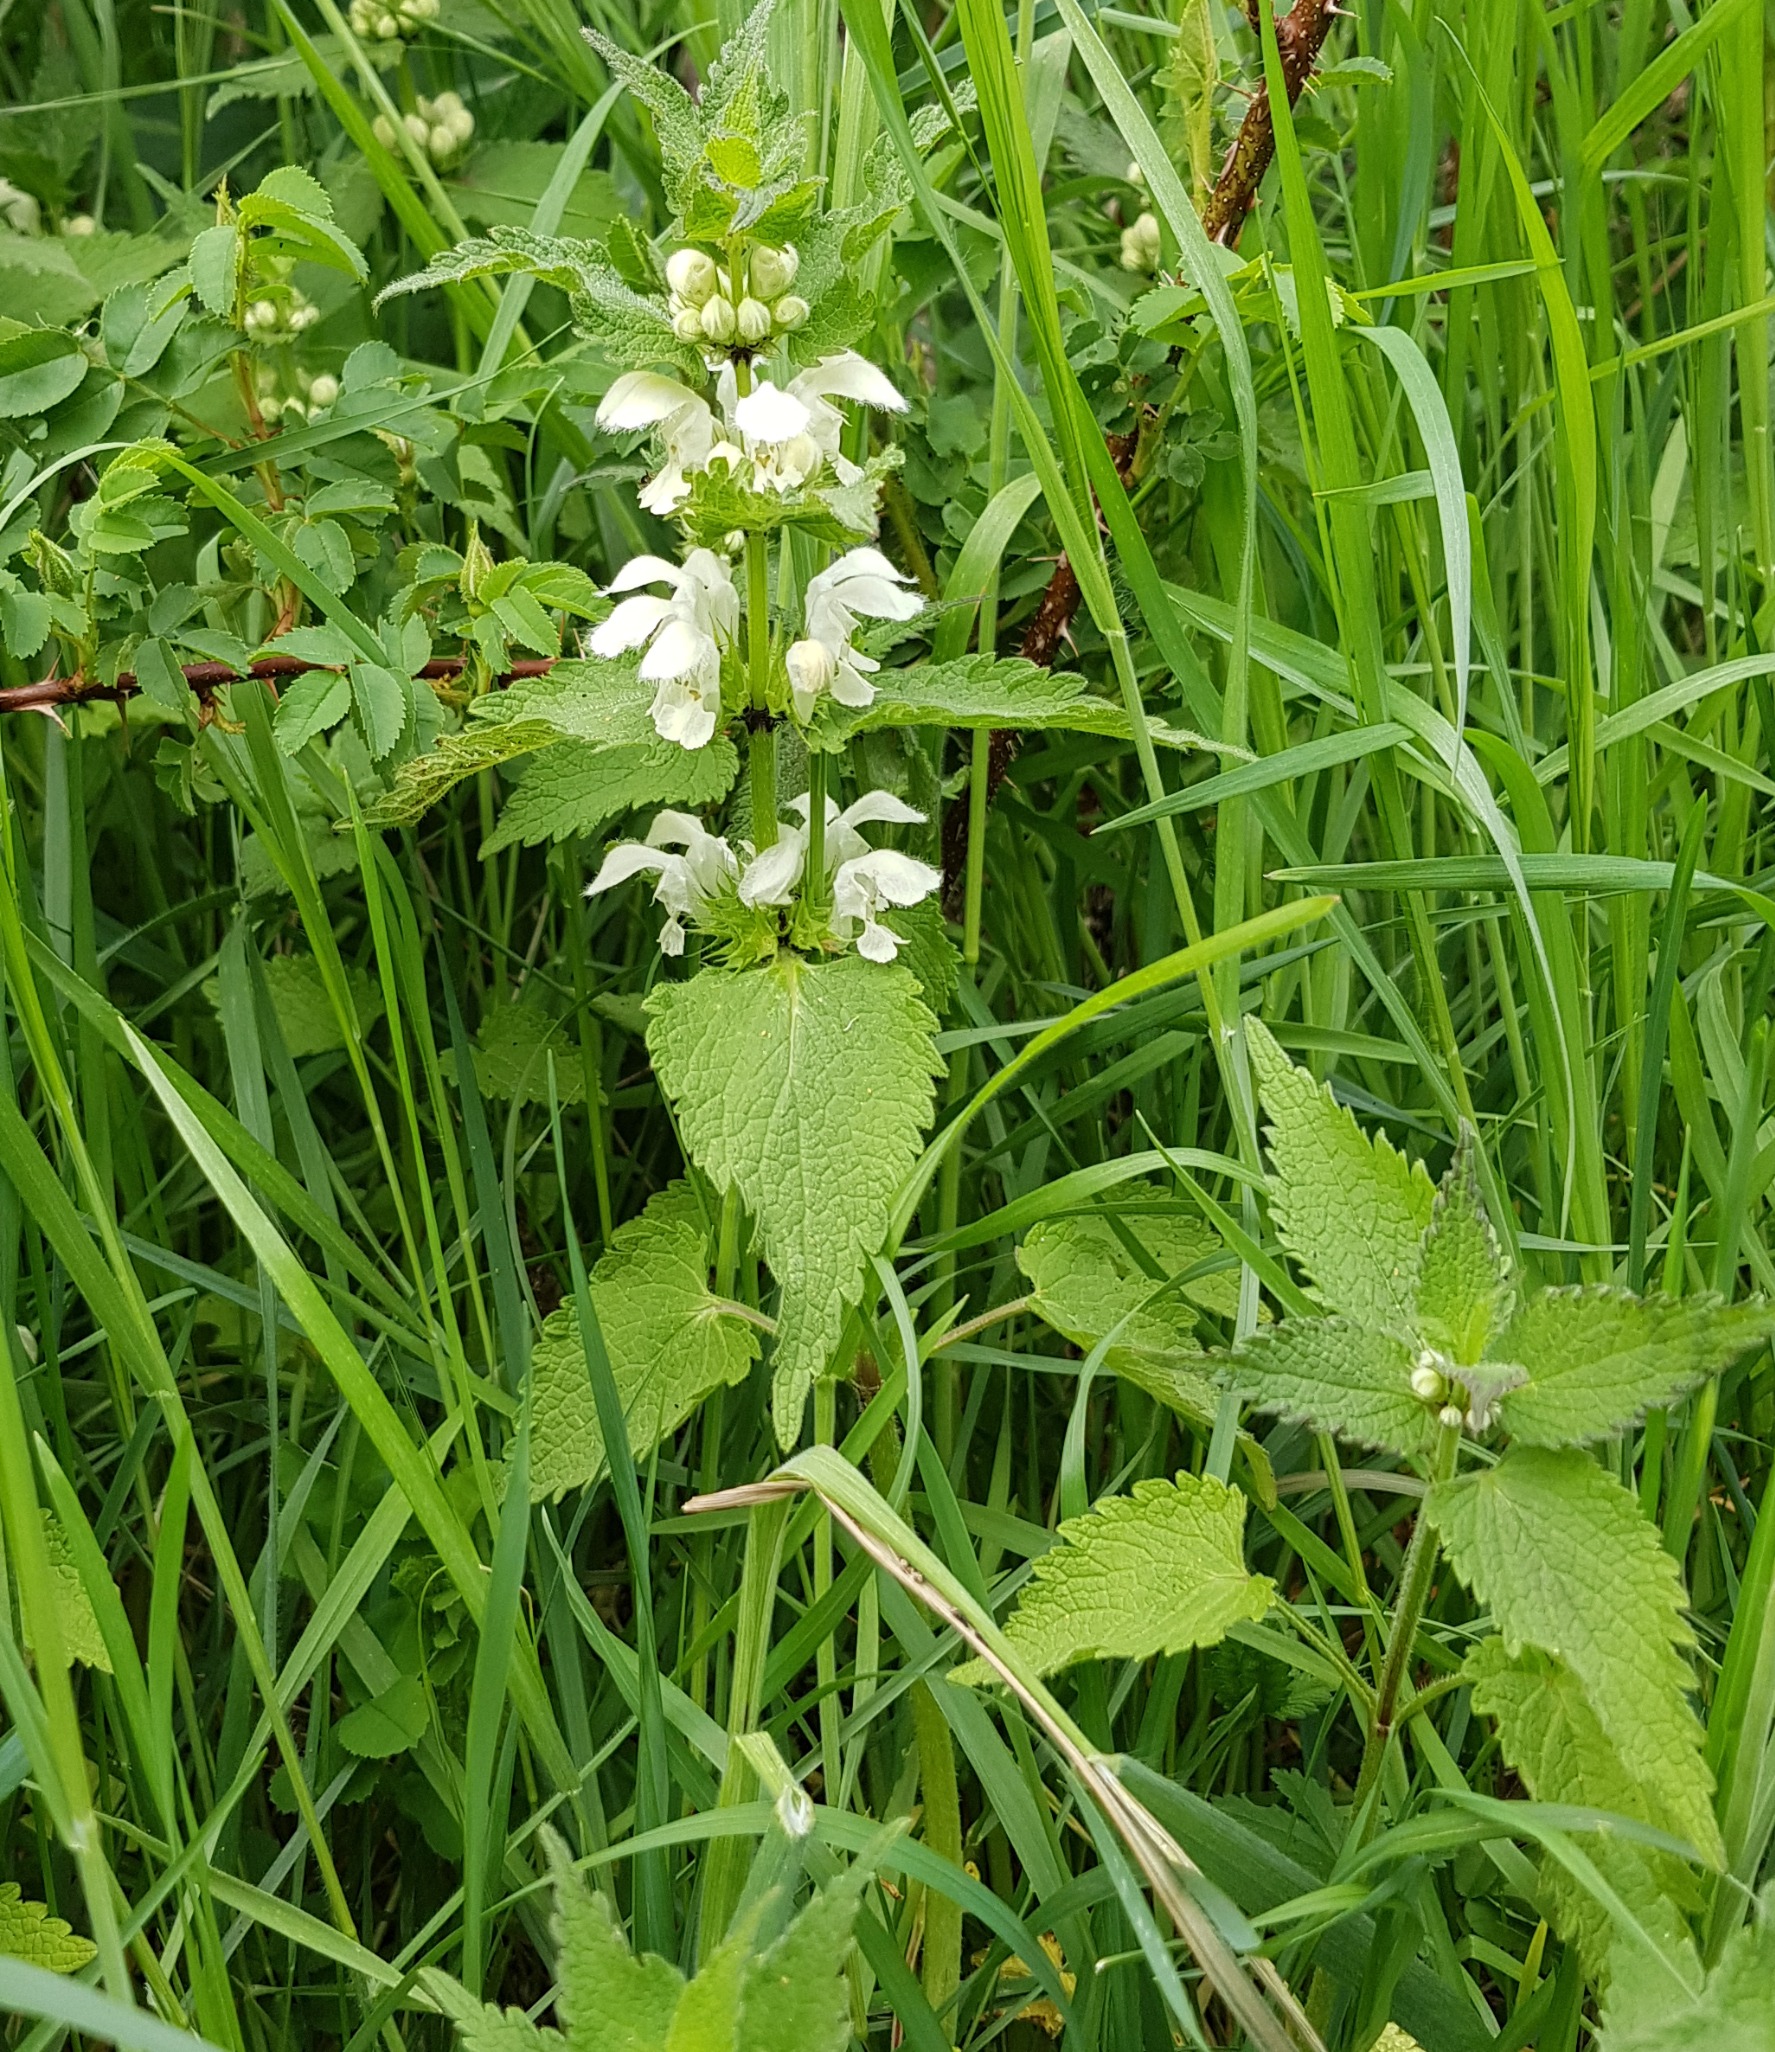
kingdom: Plantae
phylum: Tracheophyta
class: Magnoliopsida
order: Lamiales
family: Lamiaceae
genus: Lamium
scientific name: Lamium album
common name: Døvnælde
